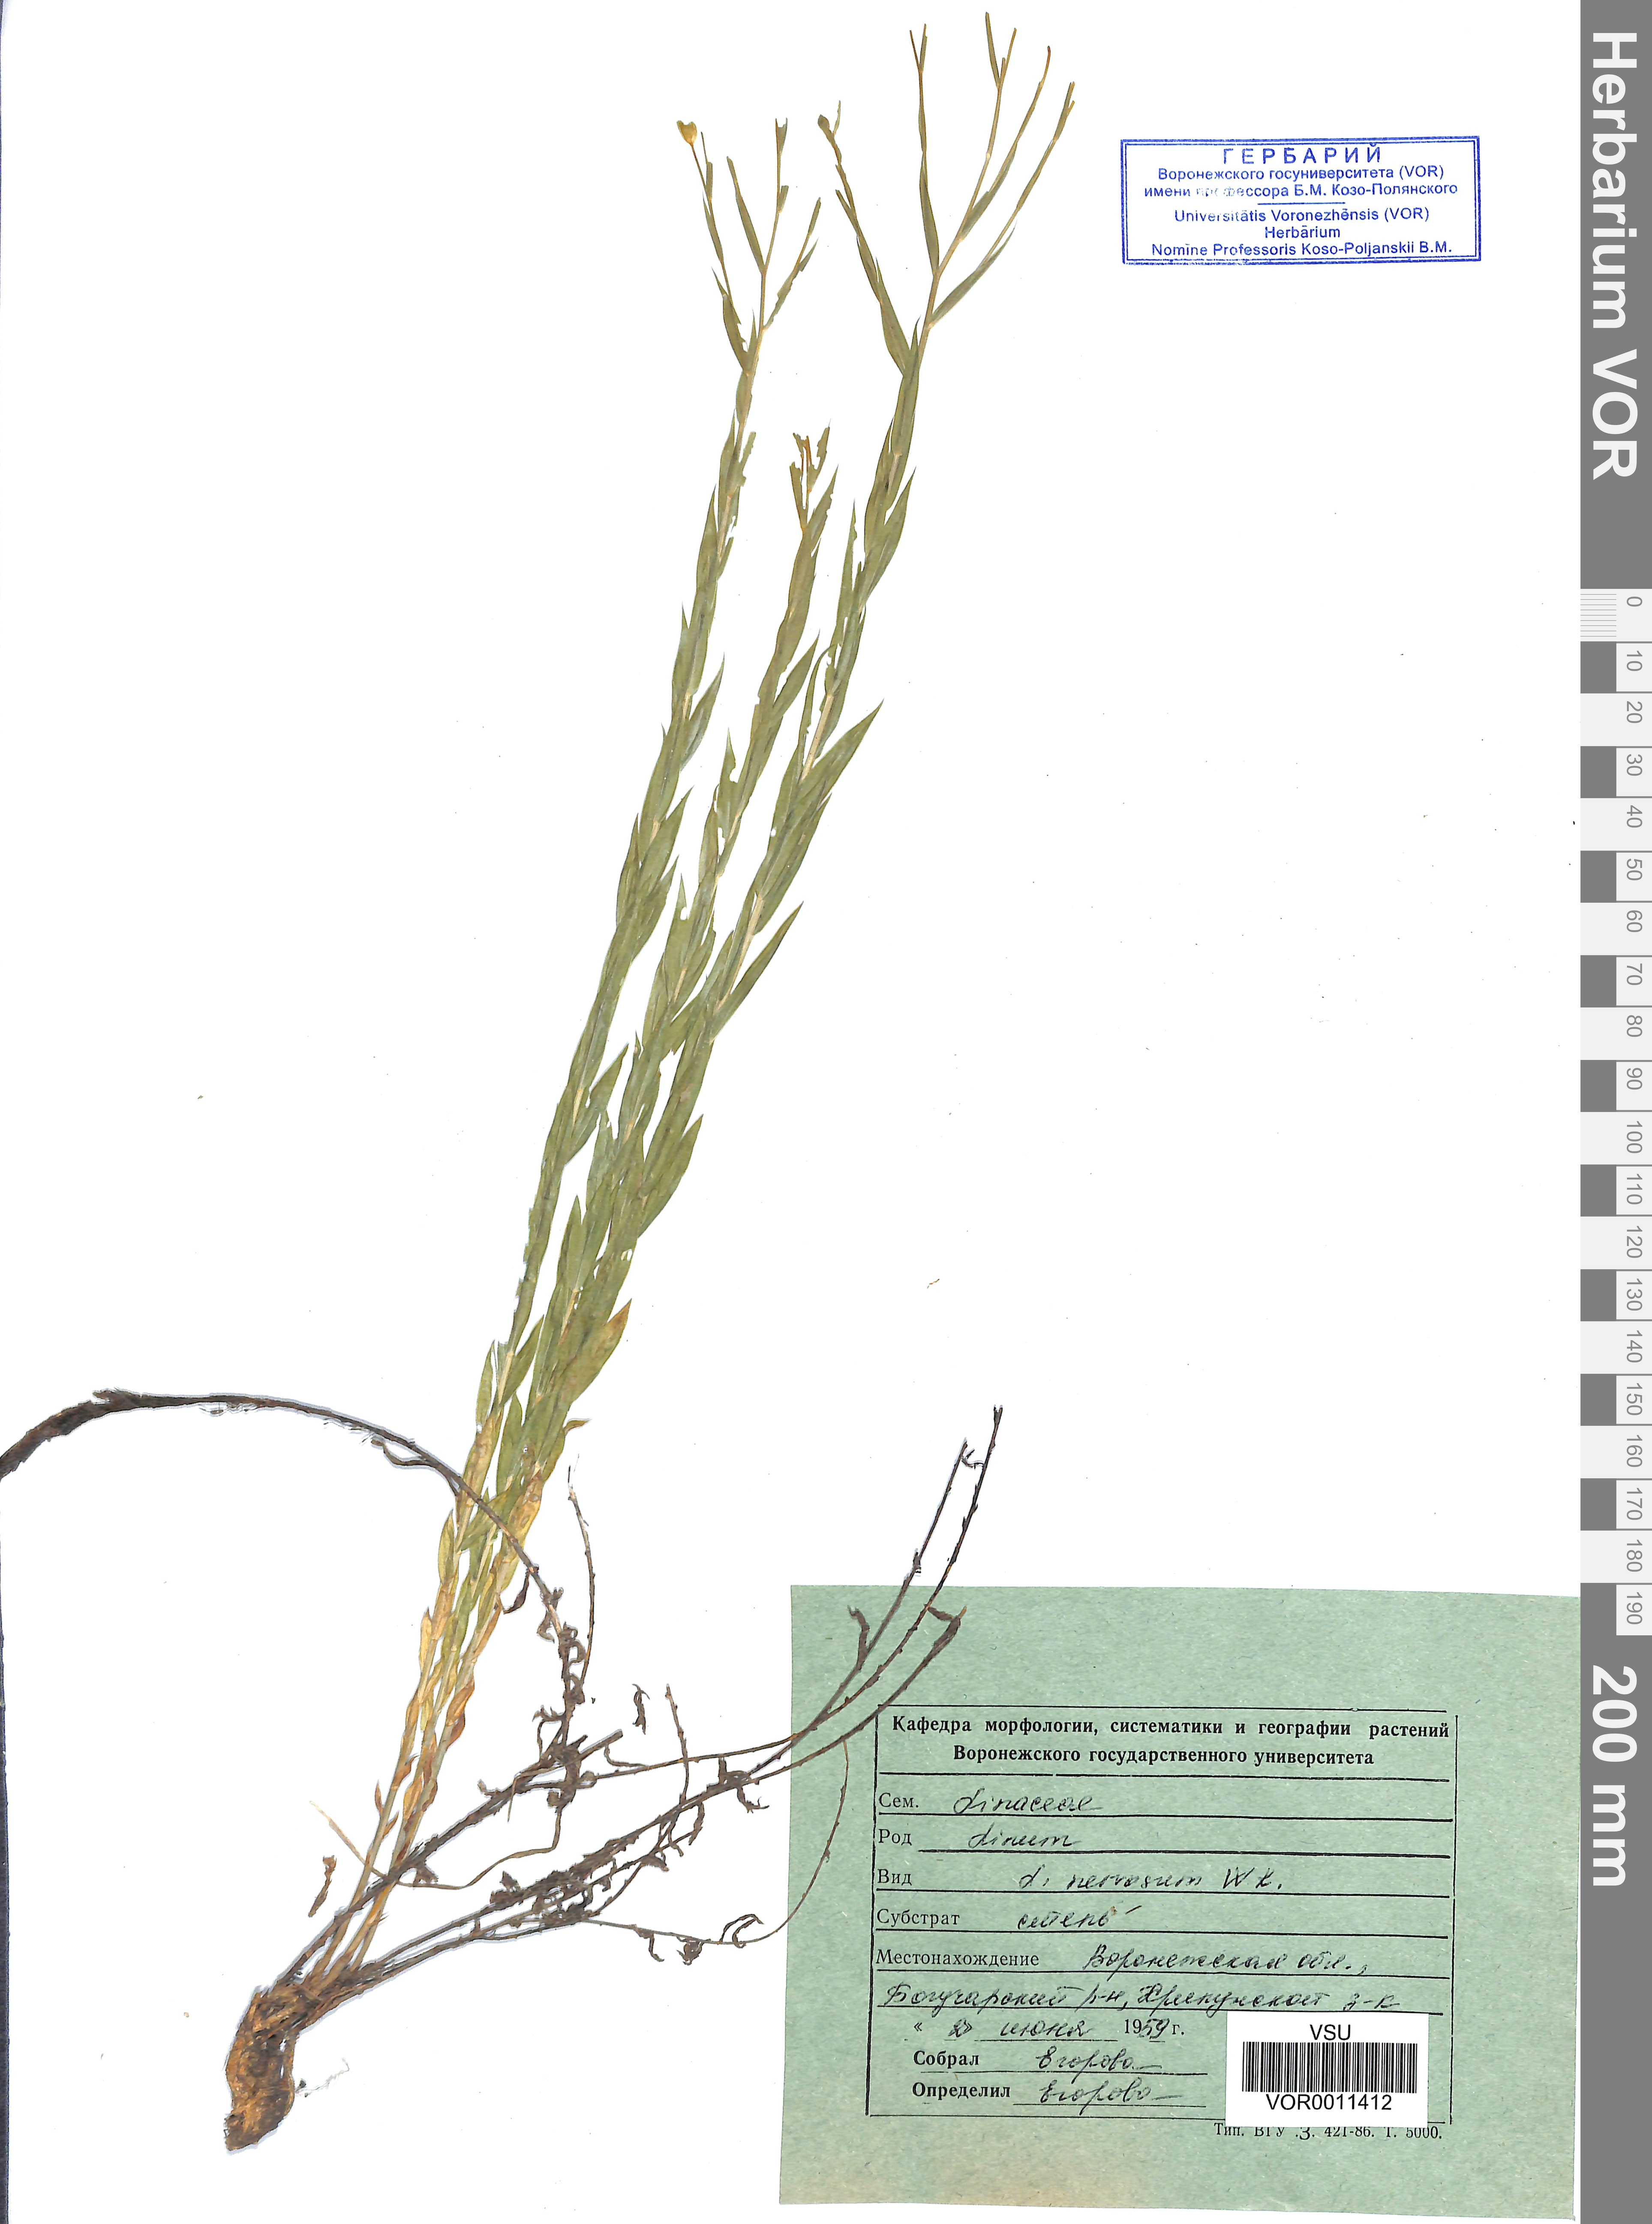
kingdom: Plantae
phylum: Tracheophyta
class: Magnoliopsida
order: Malpighiales
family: Linaceae
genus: Linum
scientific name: Linum nervosum
